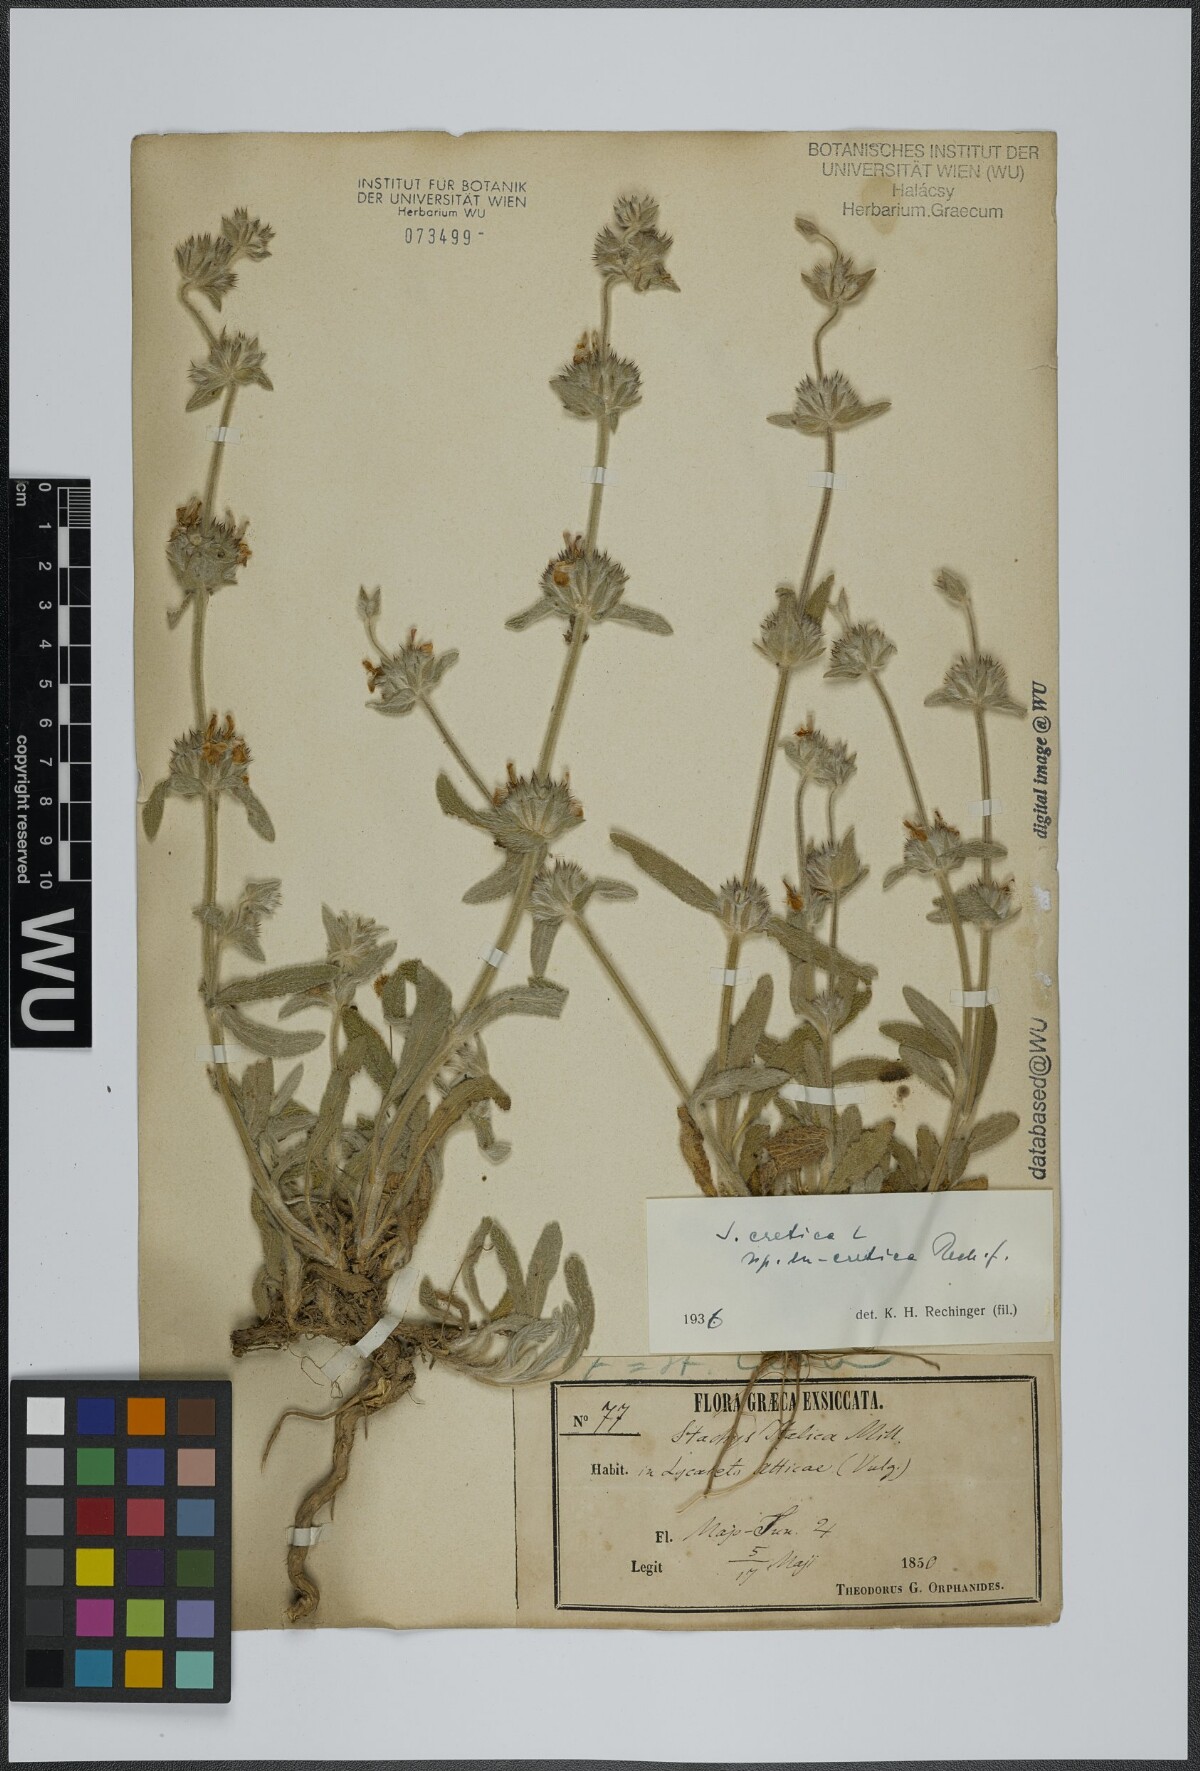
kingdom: Plantae
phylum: Tracheophyta
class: Magnoliopsida
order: Lamiales
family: Lamiaceae
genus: Stachys
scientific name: Stachys cretica
